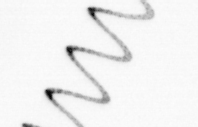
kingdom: Chromista
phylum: Ochrophyta
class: Bacillariophyceae
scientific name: Bacillariophyceae
